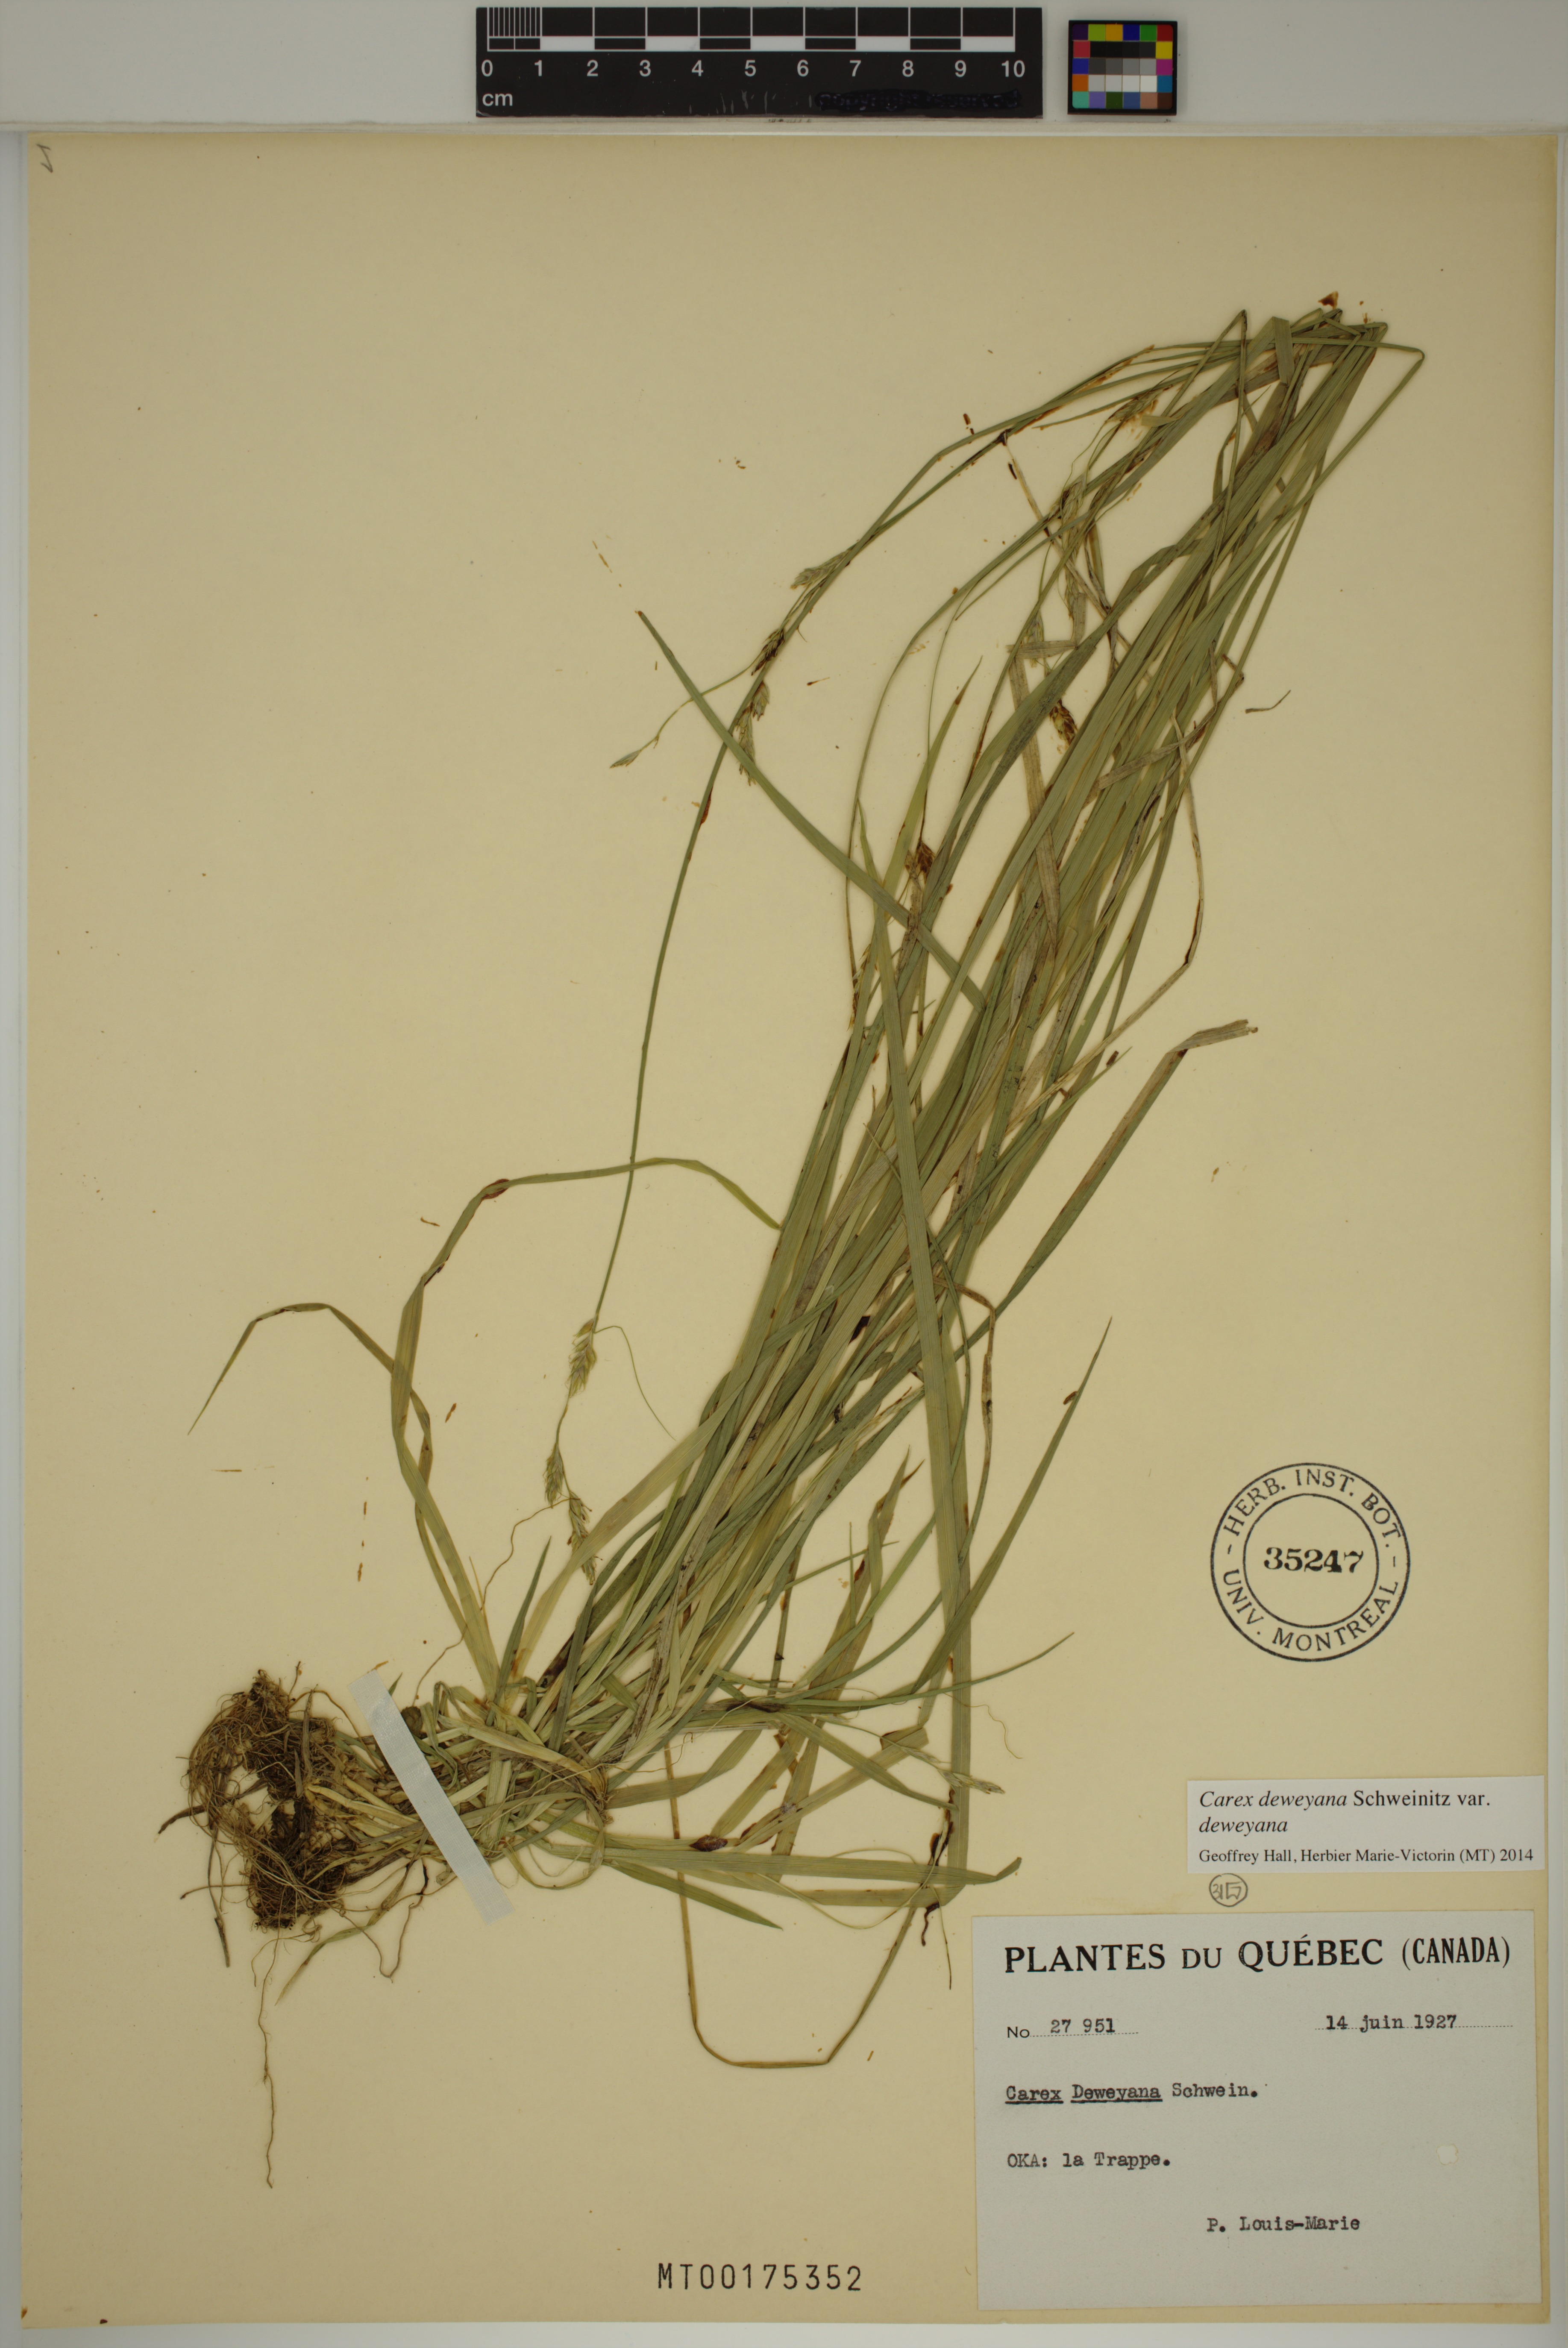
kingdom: Plantae
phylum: Tracheophyta
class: Liliopsida
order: Poales
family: Cyperaceae
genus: Carex
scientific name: Carex deweyana
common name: Dewey's sedge
